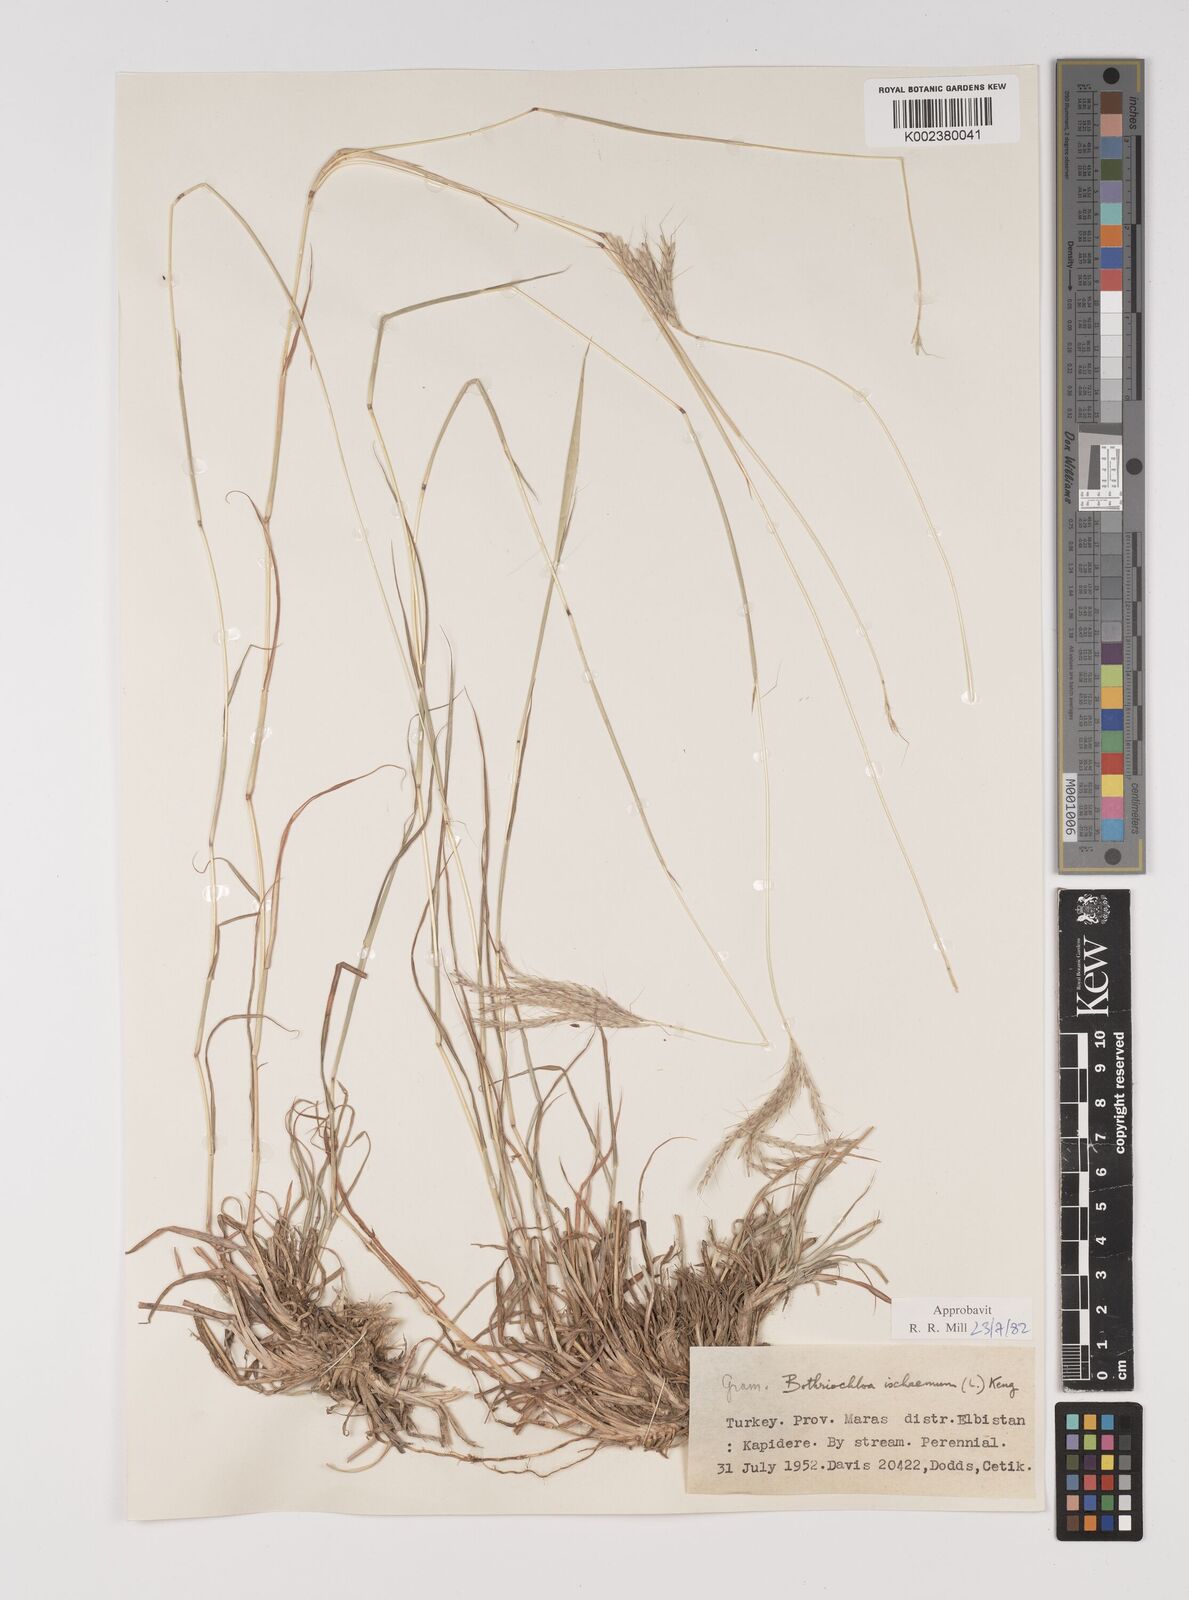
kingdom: Plantae
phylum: Tracheophyta
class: Liliopsida
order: Poales
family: Poaceae
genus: Bothriochloa
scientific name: Bothriochloa ischaemum
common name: Yellow bluestem
